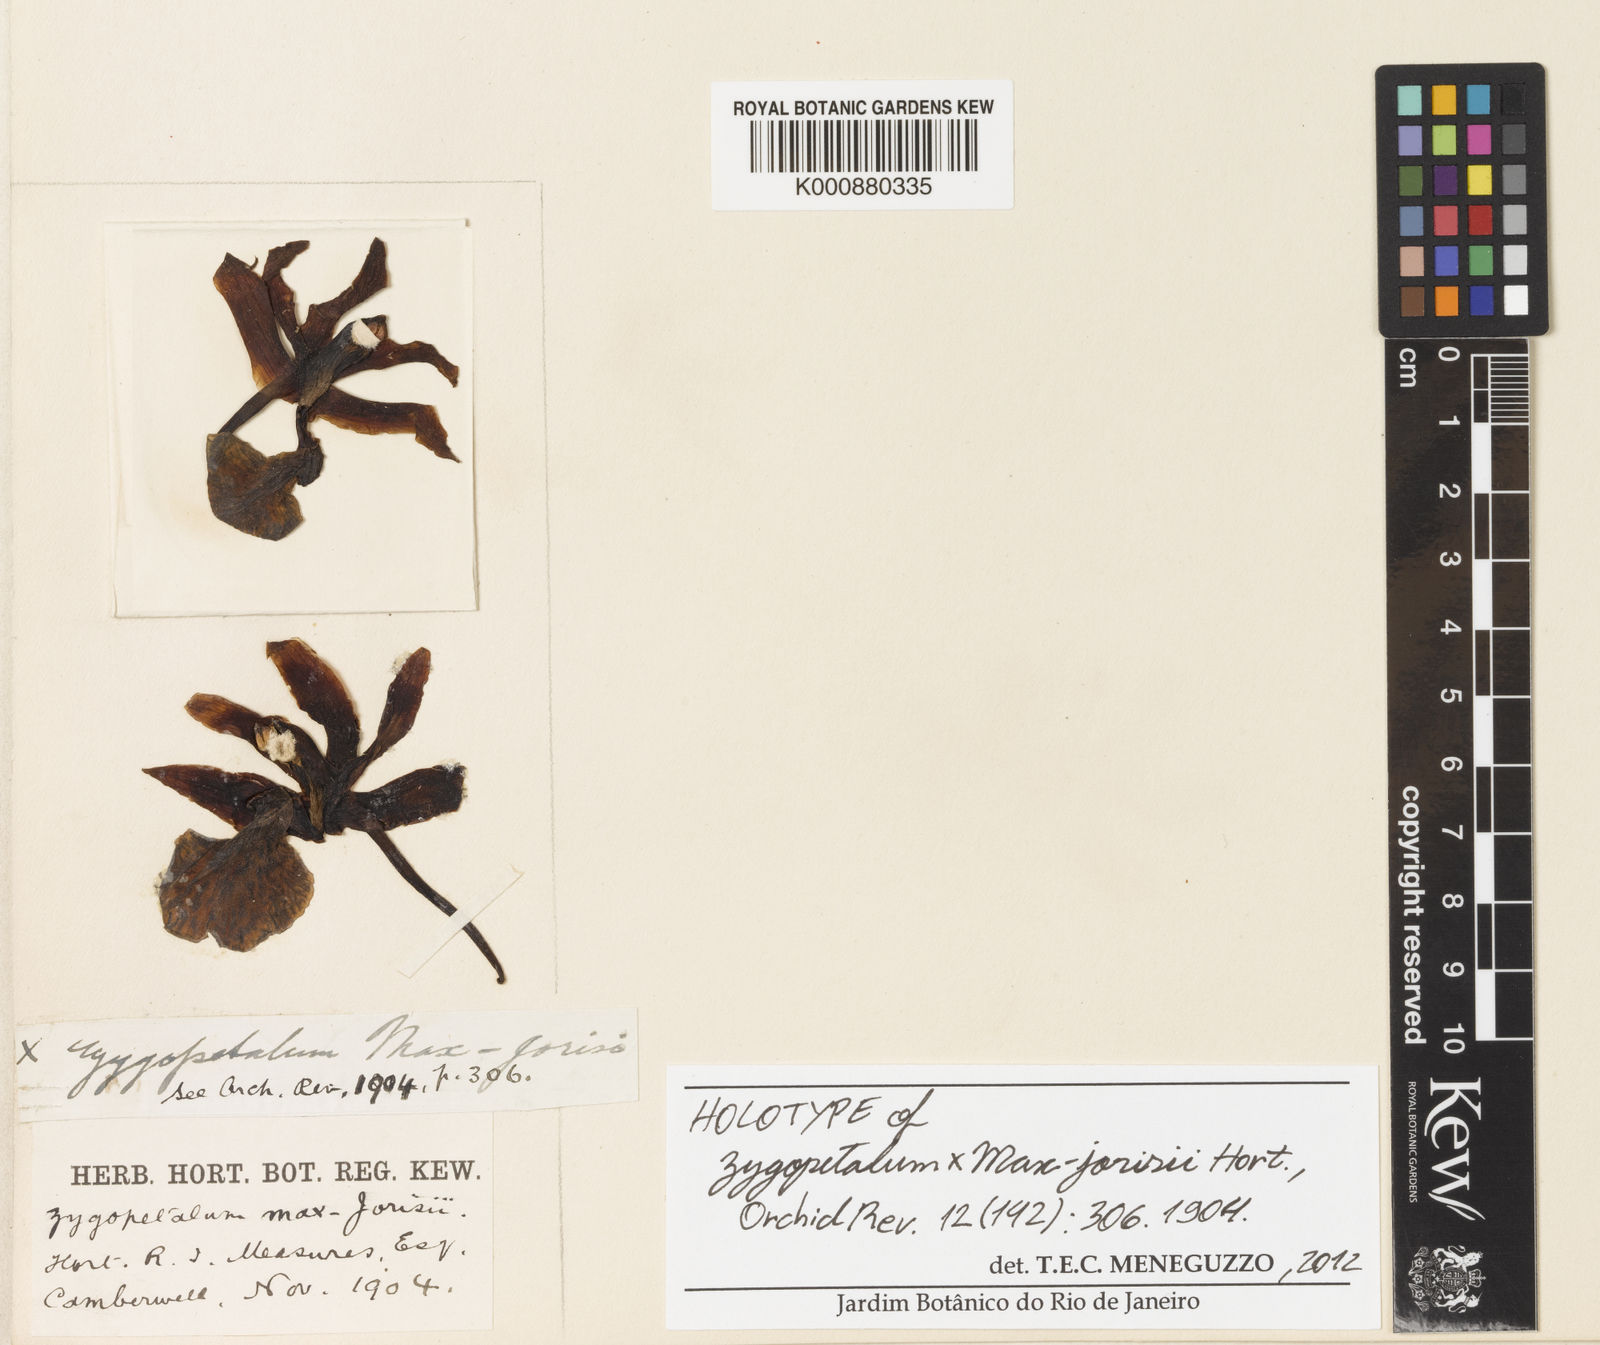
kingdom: Plantae
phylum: Tracheophyta
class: Liliopsida
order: Asparagales
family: Orchidaceae
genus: Zygopetalum
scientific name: Zygopetalum
